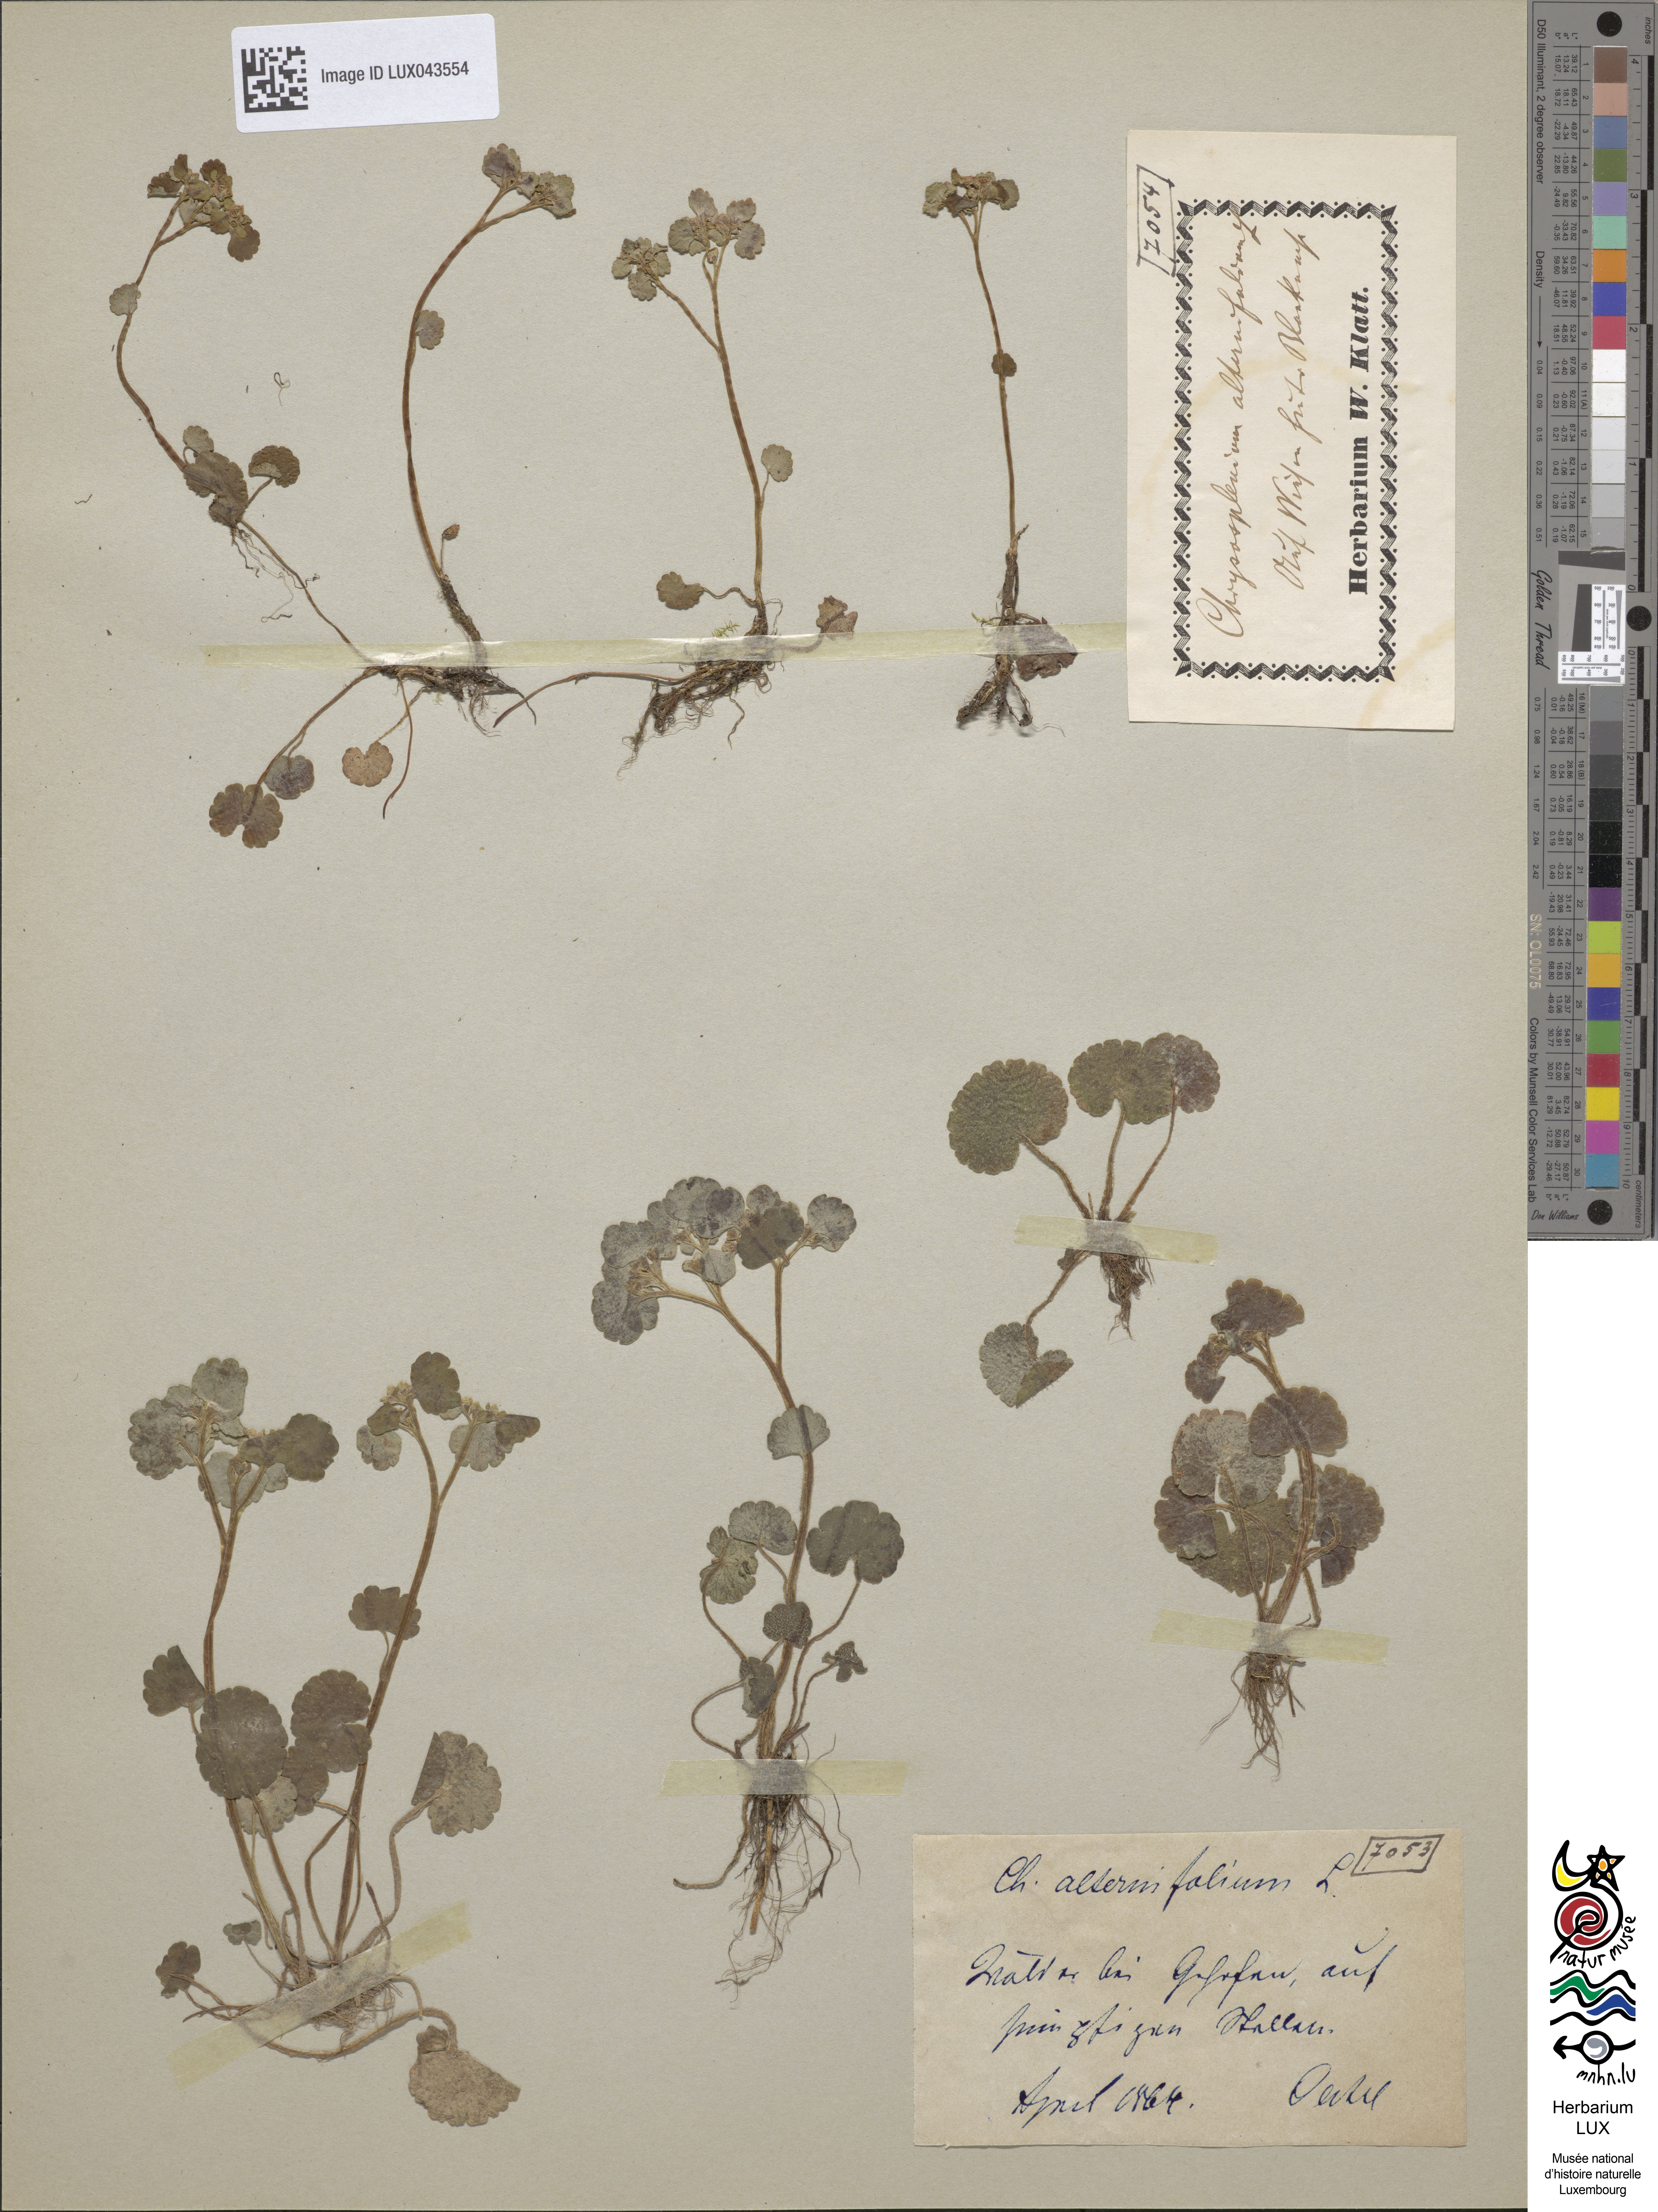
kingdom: Plantae
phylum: Tracheophyta
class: Magnoliopsida
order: Saxifragales
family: Saxifragaceae
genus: Chrysosplenium
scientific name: Chrysosplenium alternifolium
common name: Alternate-leaved golden-saxifrage
